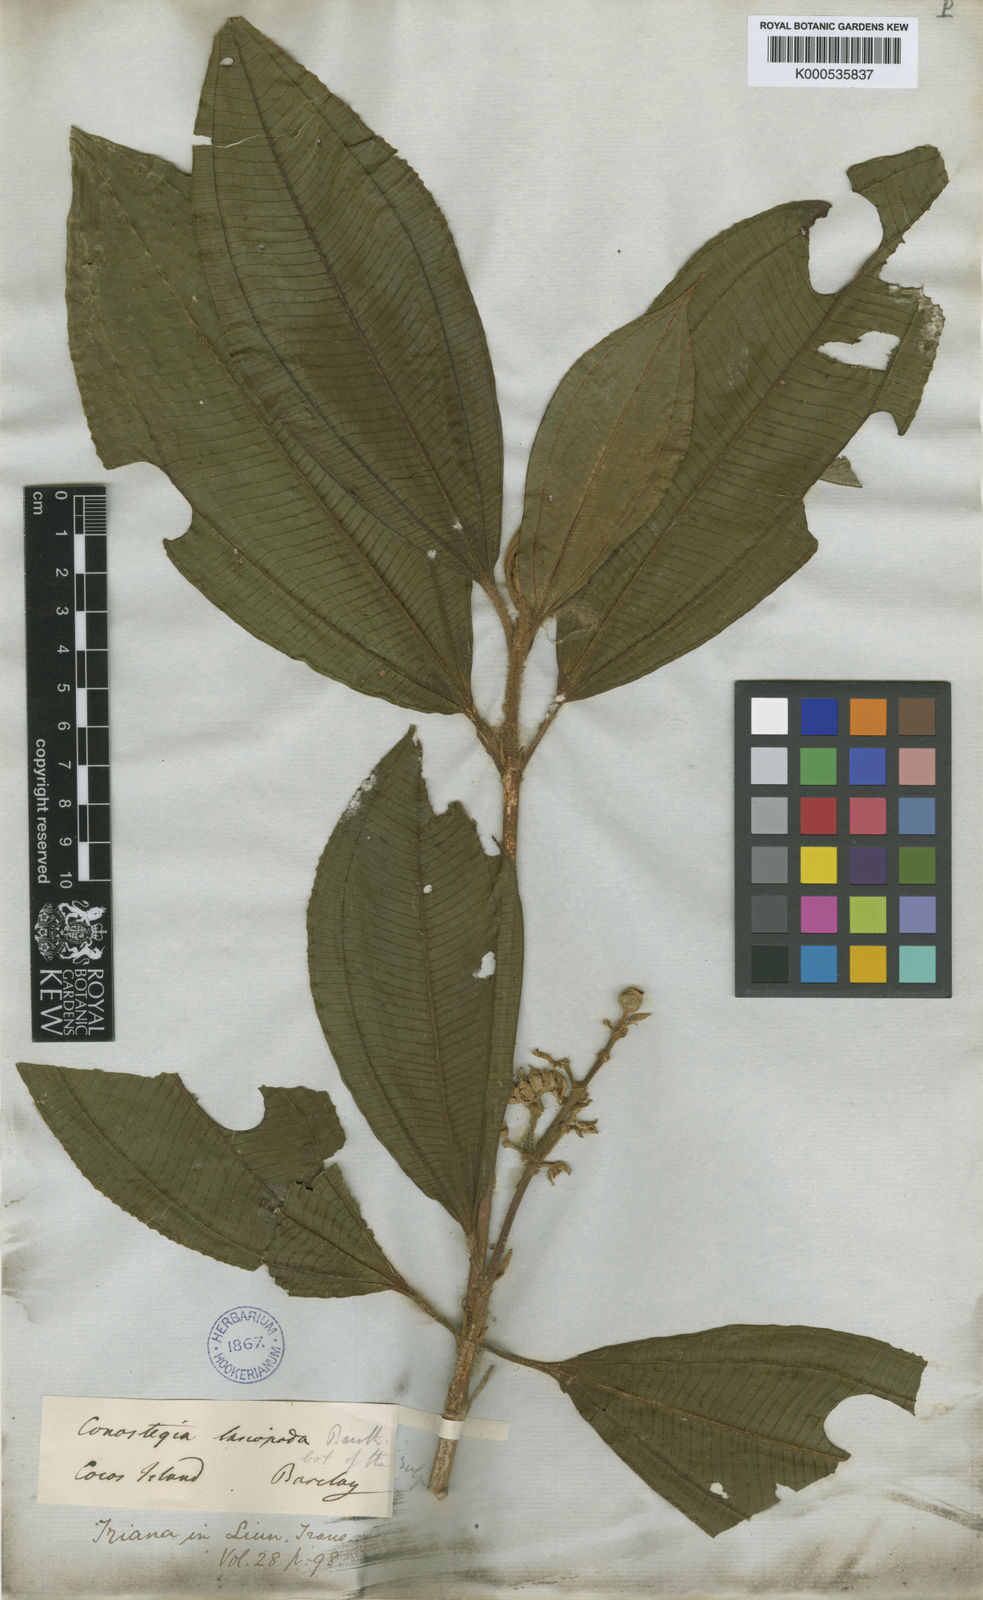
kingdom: Plantae
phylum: Tracheophyta
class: Magnoliopsida
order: Myrtales
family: Melastomataceae
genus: Miconia
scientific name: Miconia lasiopoda
